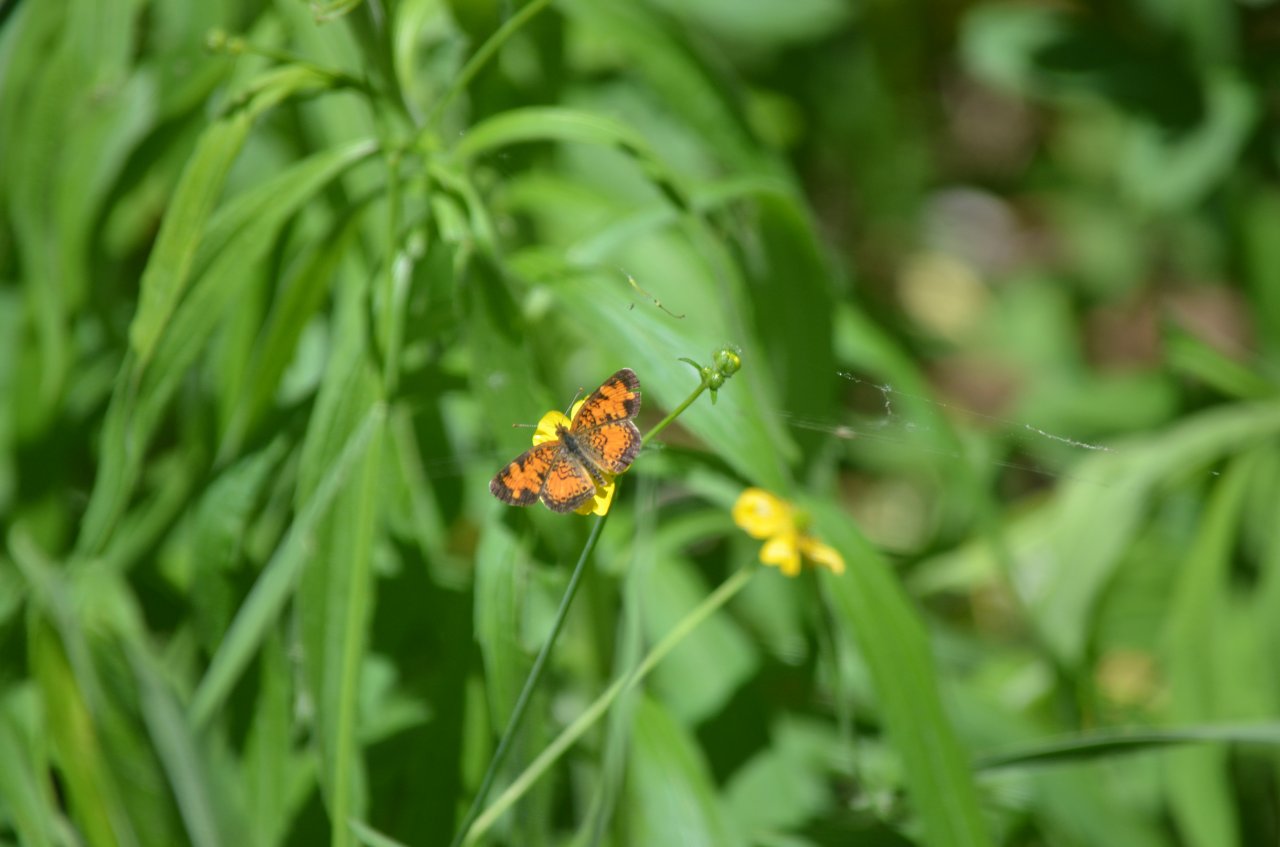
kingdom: Animalia
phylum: Arthropoda
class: Insecta
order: Lepidoptera
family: Nymphalidae
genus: Phyciodes
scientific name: Phyciodes tharos
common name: Northern Crescent
